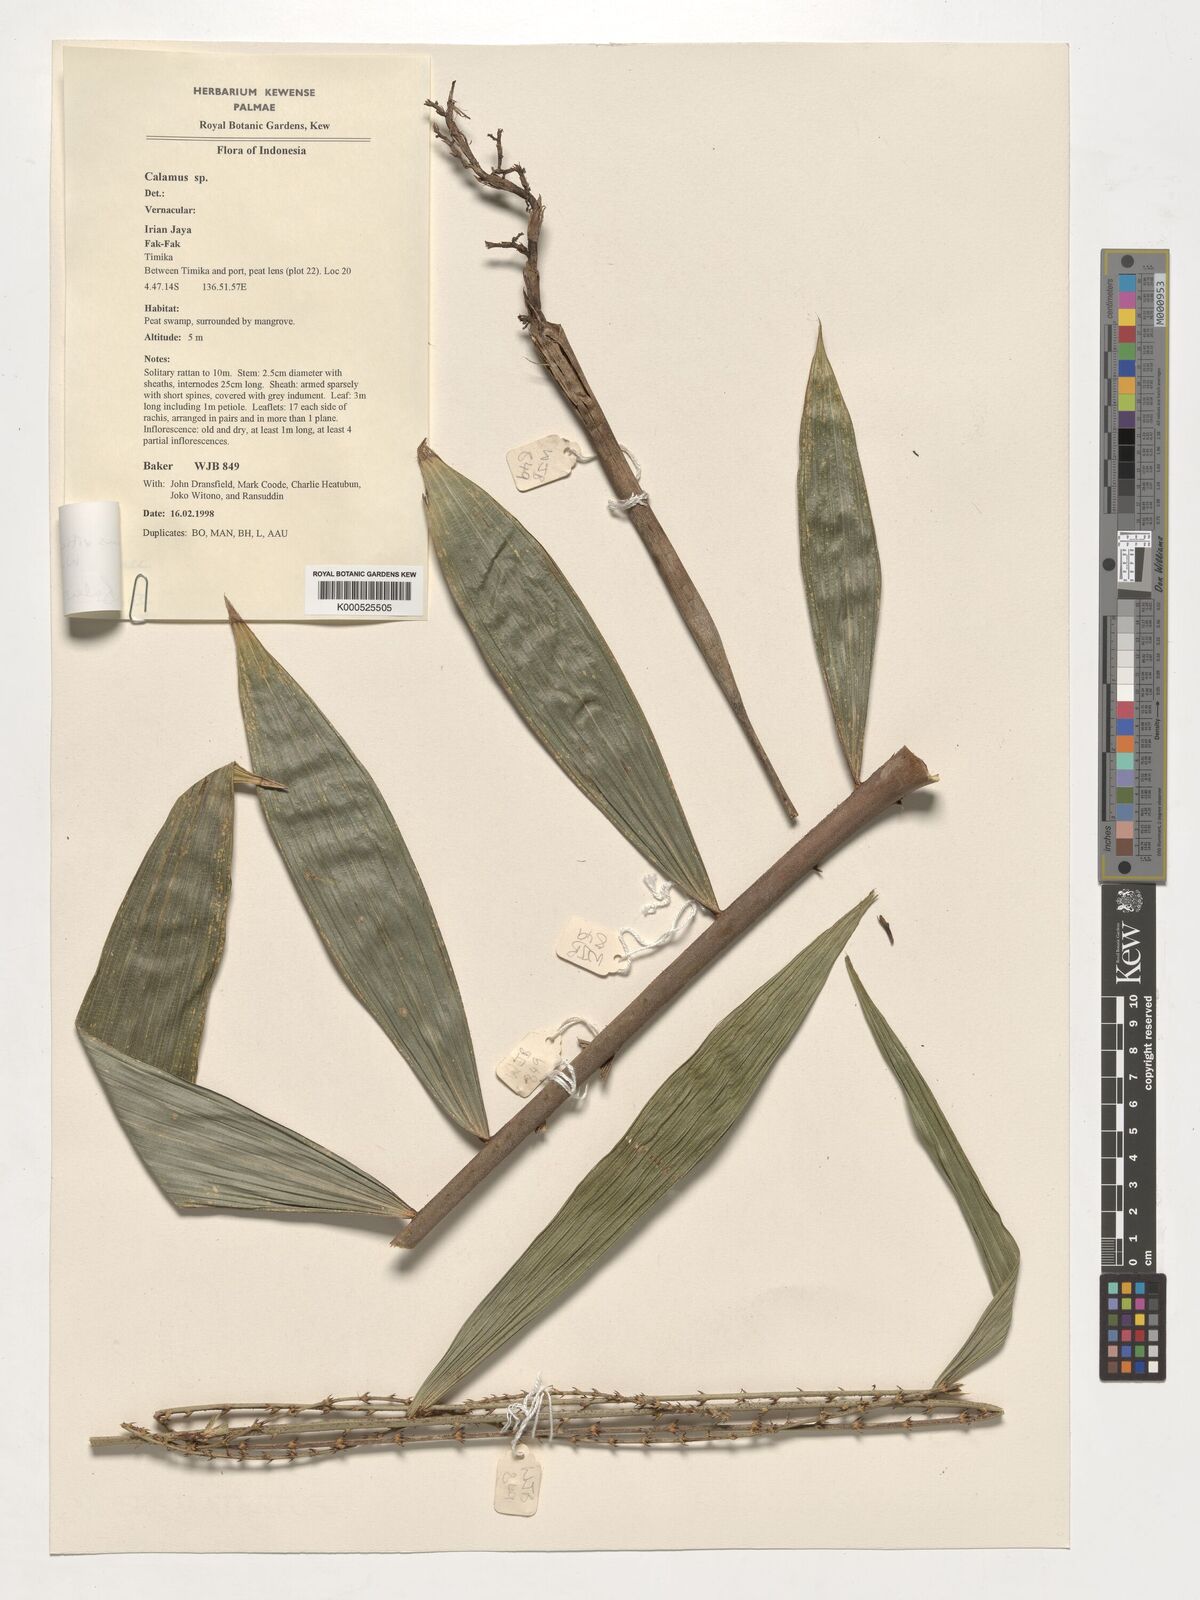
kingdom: Plantae
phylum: Tracheophyta
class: Liliopsida
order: Arecales
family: Arecaceae
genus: Calamus
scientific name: Calamus vitiensis
